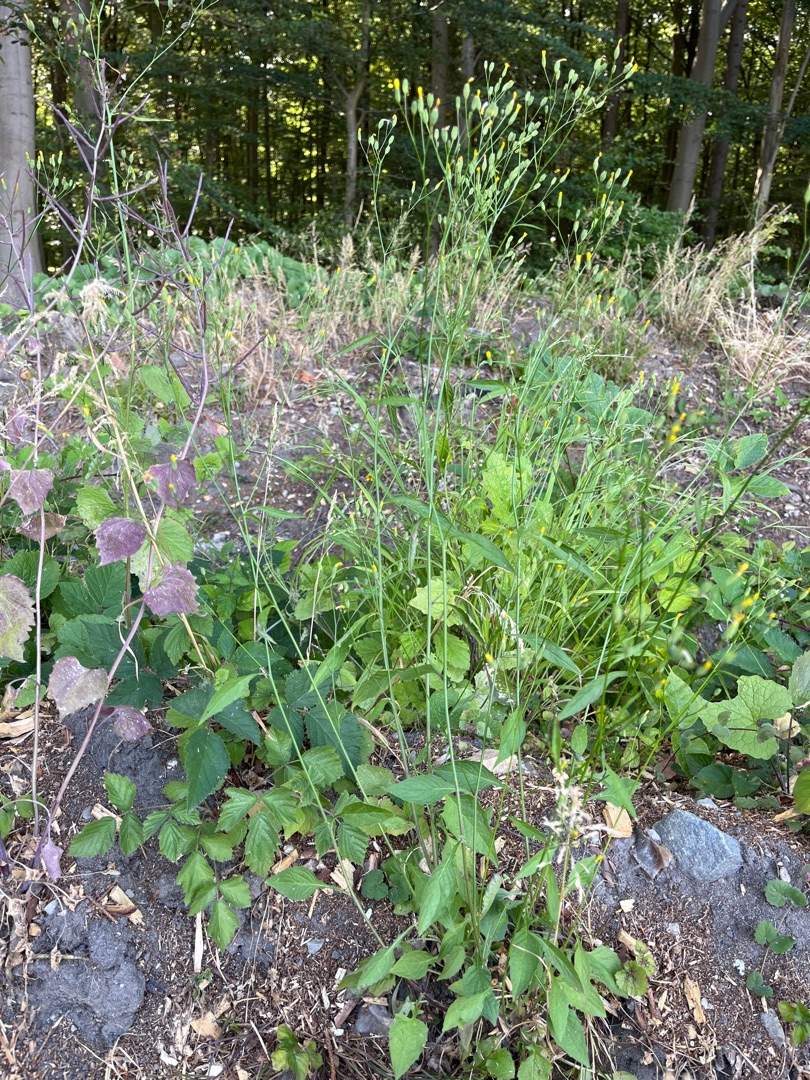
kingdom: Plantae
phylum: Tracheophyta
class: Magnoliopsida
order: Asterales
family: Asteraceae
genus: Lapsana
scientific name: Lapsana communis
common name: Haremad
